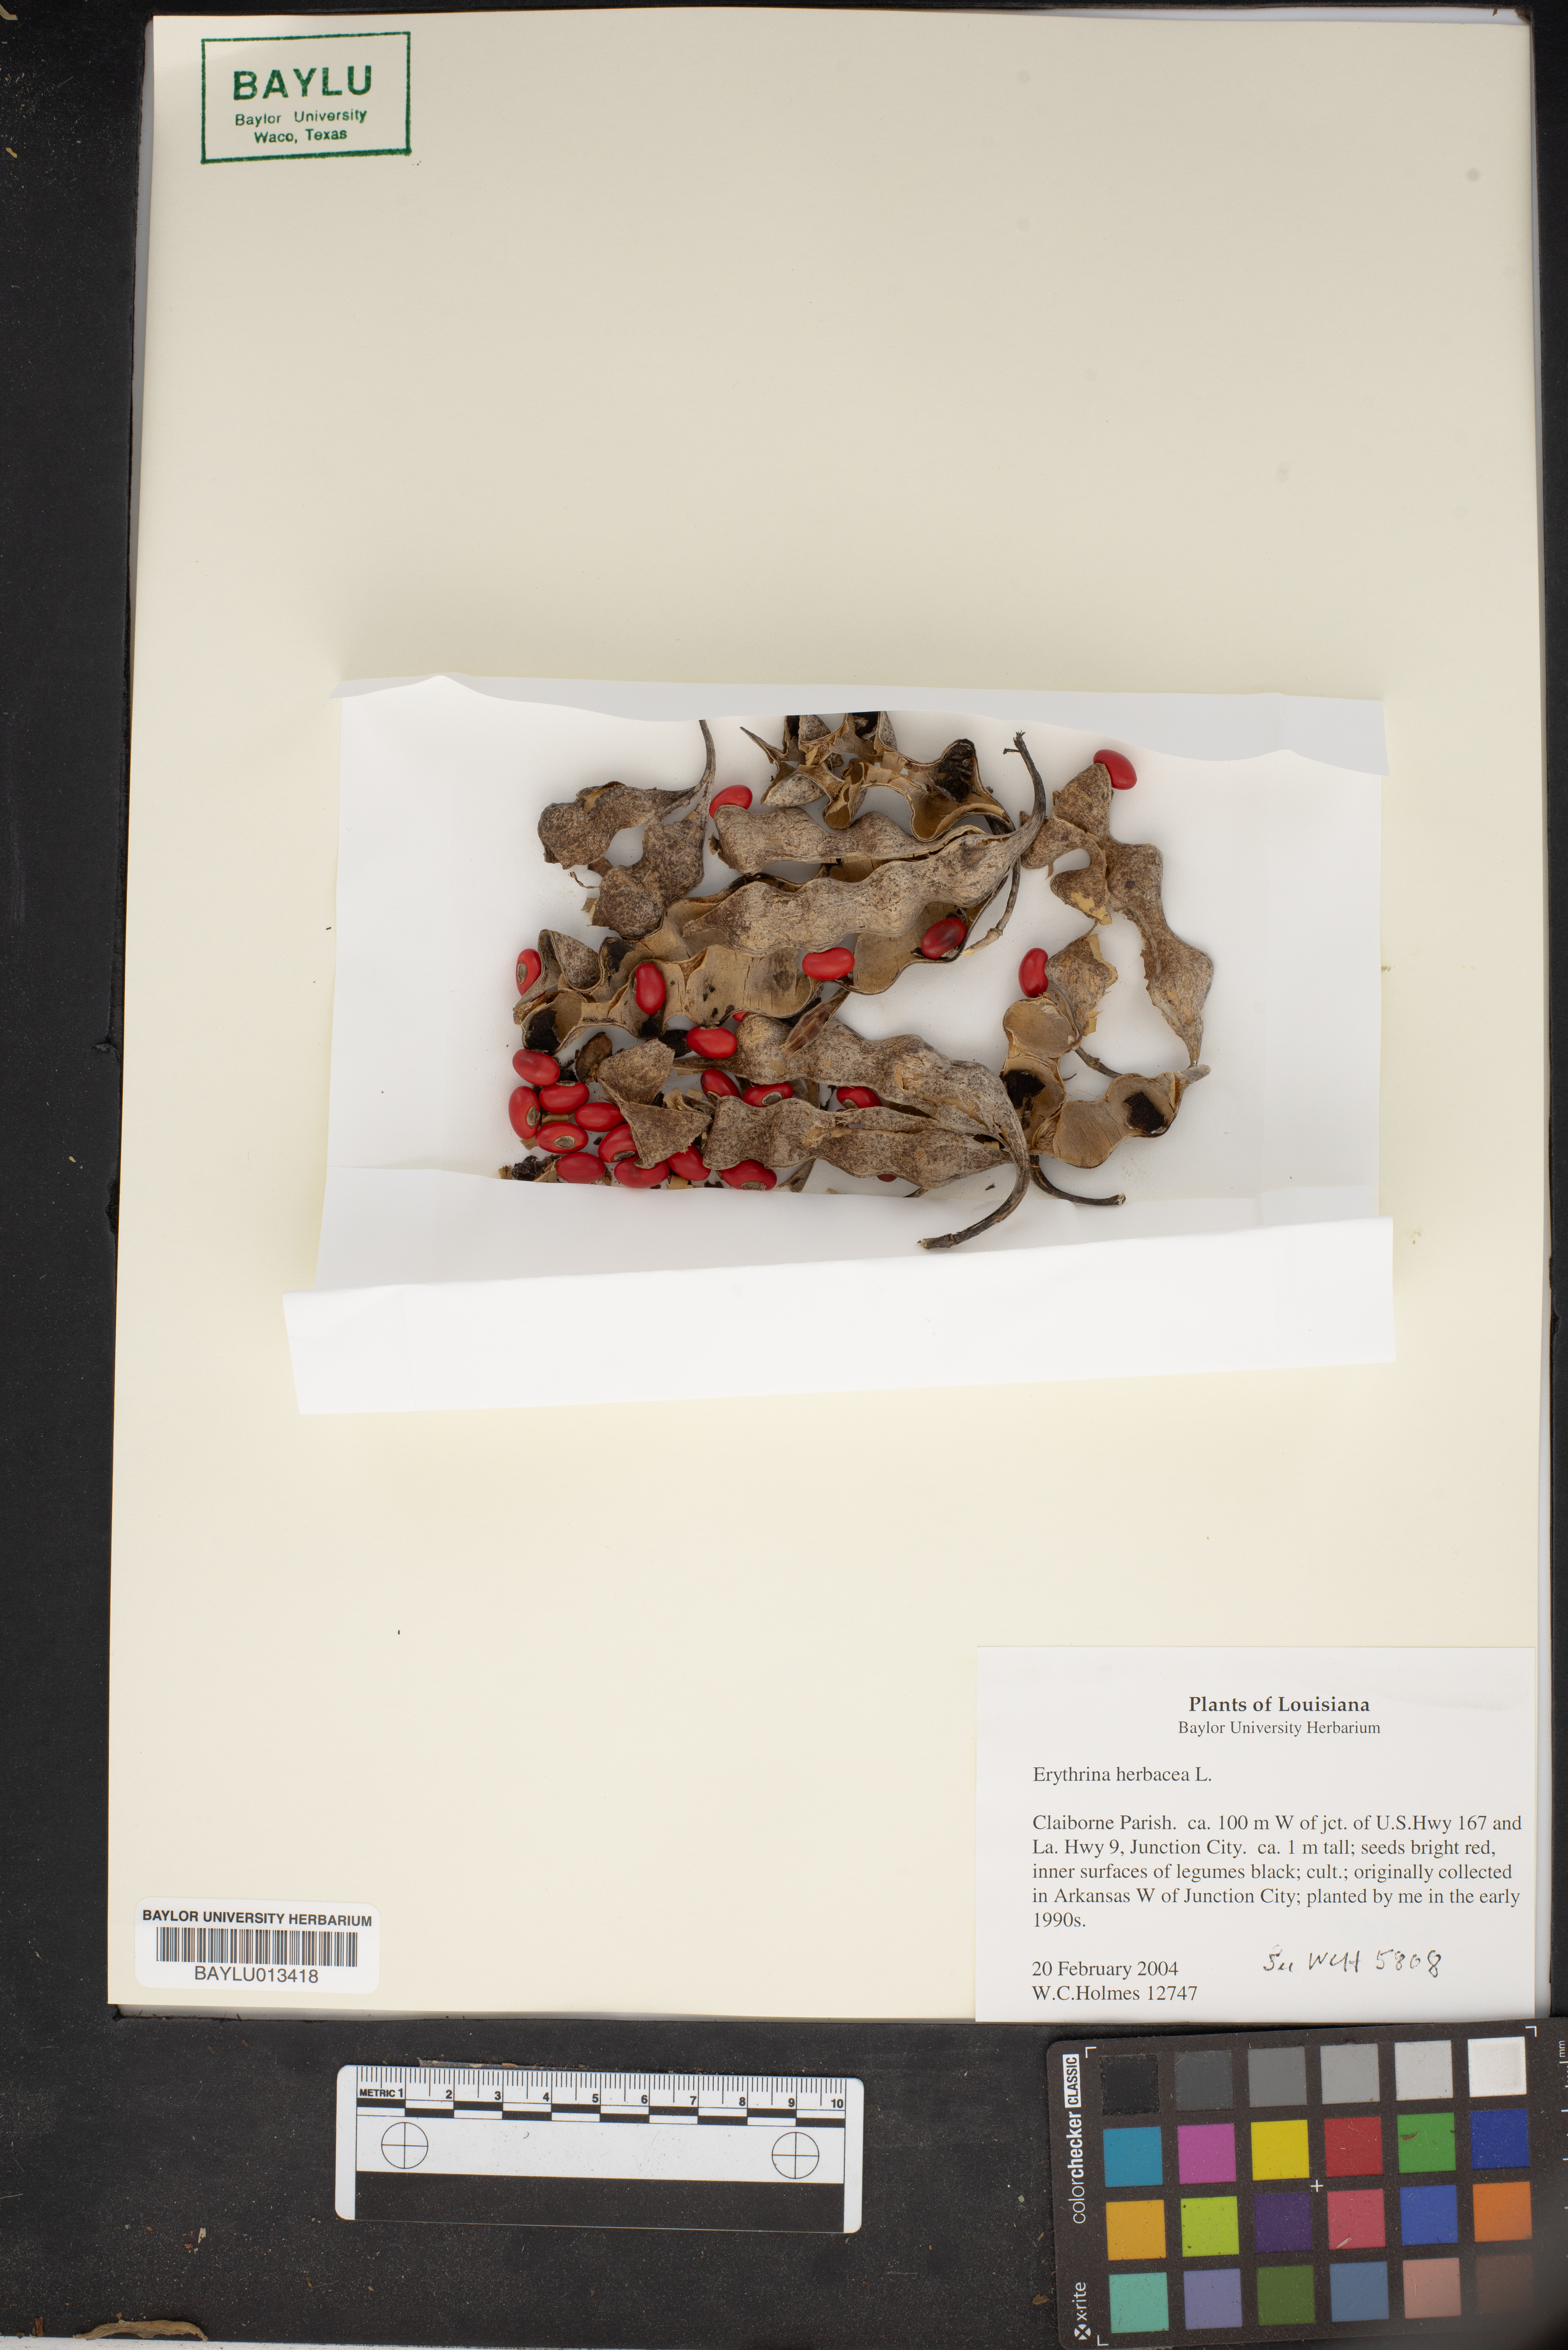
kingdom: Plantae
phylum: Tracheophyta
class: Magnoliopsida
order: Fabales
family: Fabaceae
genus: Erythrina
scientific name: Erythrina herbacea
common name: Coral-bean
